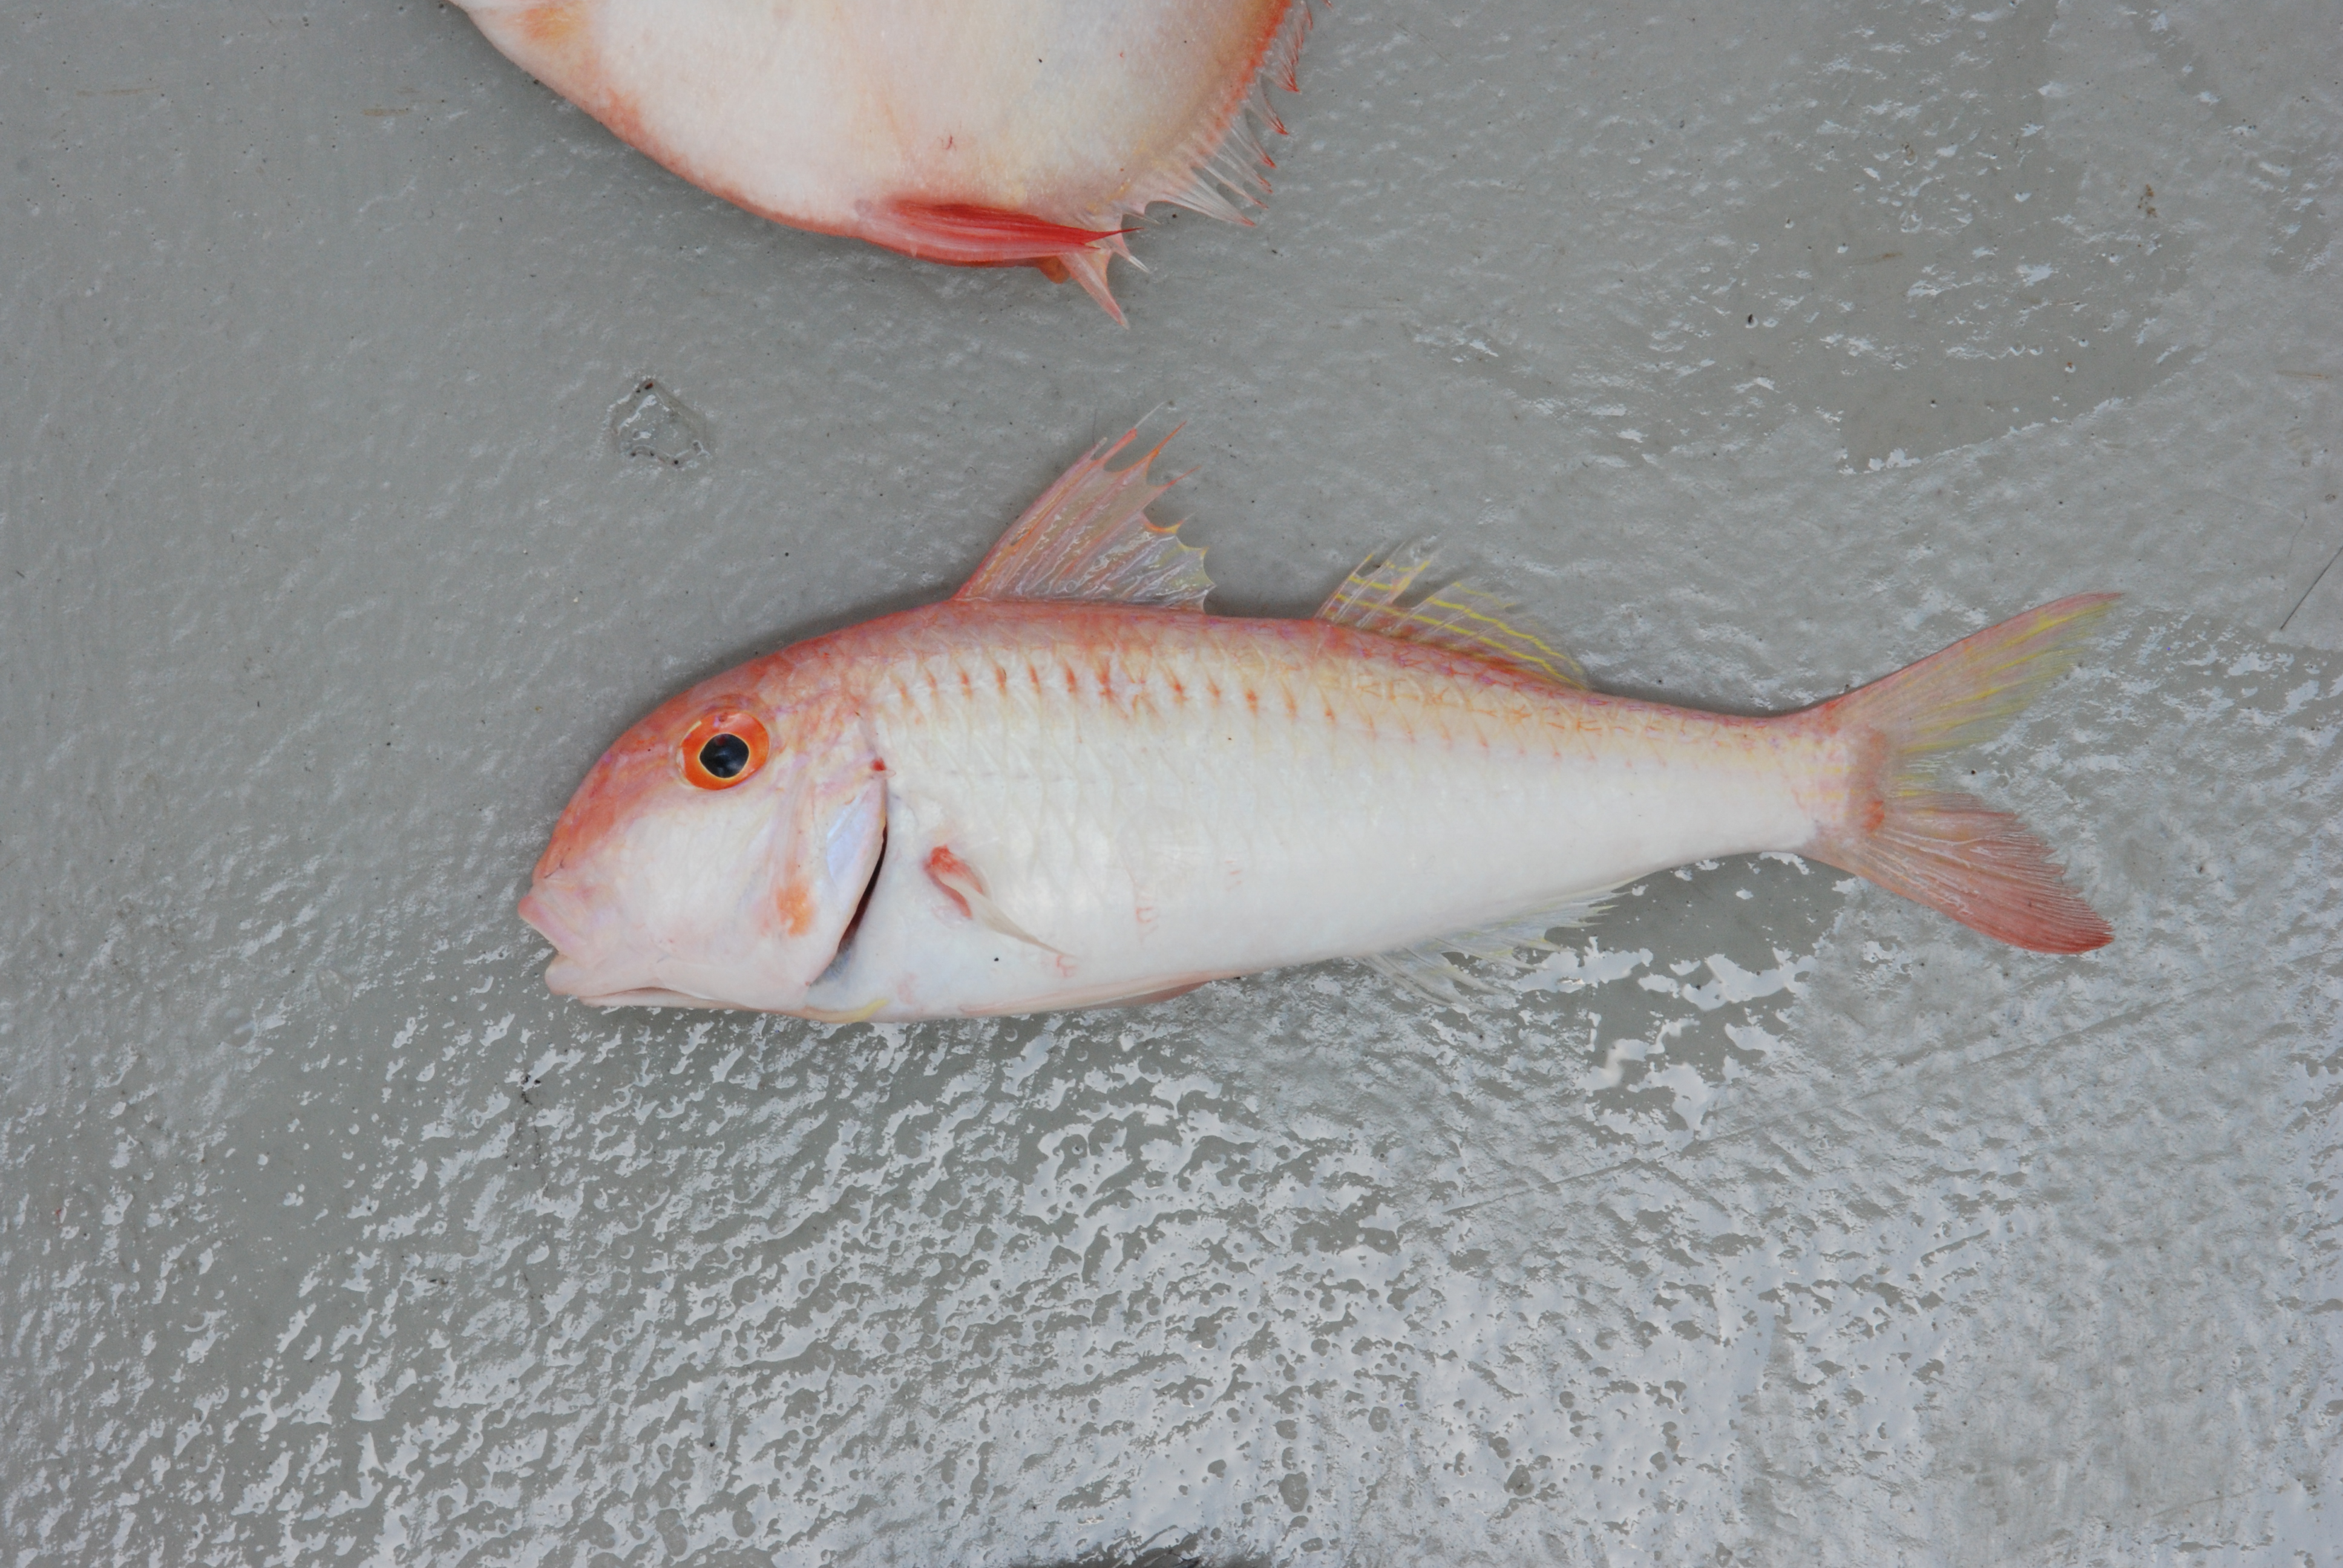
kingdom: Animalia
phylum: Chordata
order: Perciformes
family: Mullidae
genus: Parupeneus
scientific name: Parupeneus procerigena
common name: Deep-cheek goatfish
